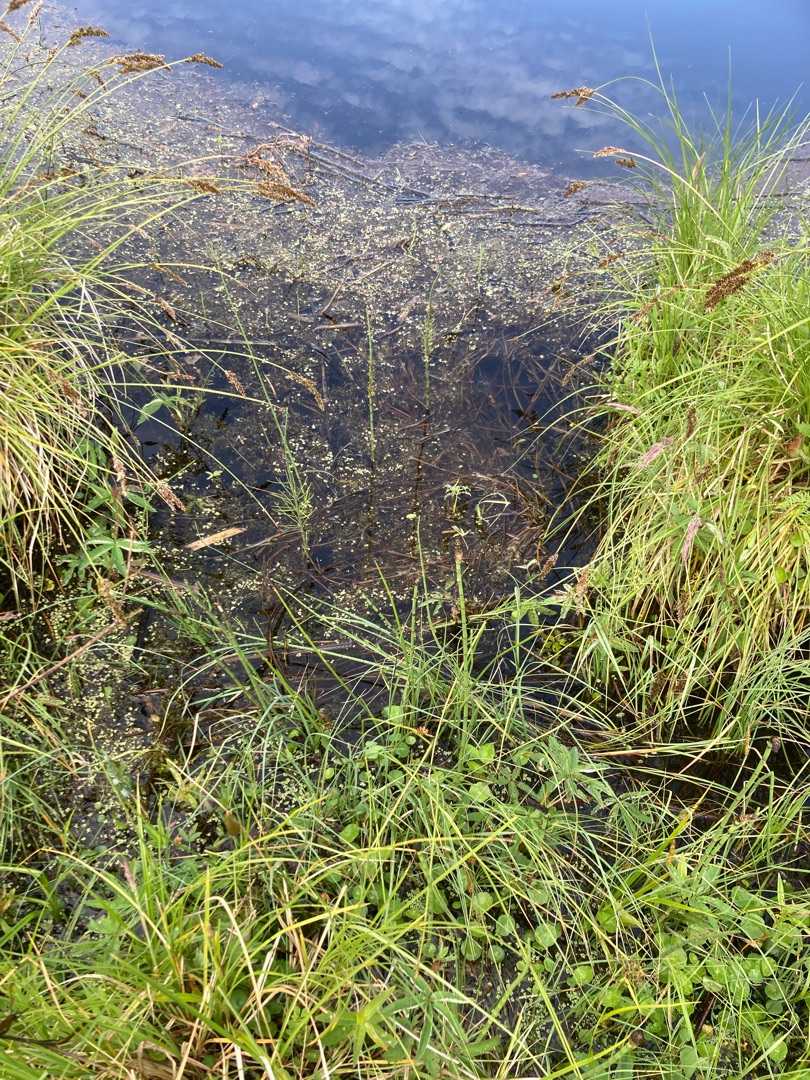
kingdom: Plantae
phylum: Tracheophyta
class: Magnoliopsida
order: Lamiales
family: Lentibulariaceae
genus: Utricularia
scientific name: Utricularia
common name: Blærerodslægten
